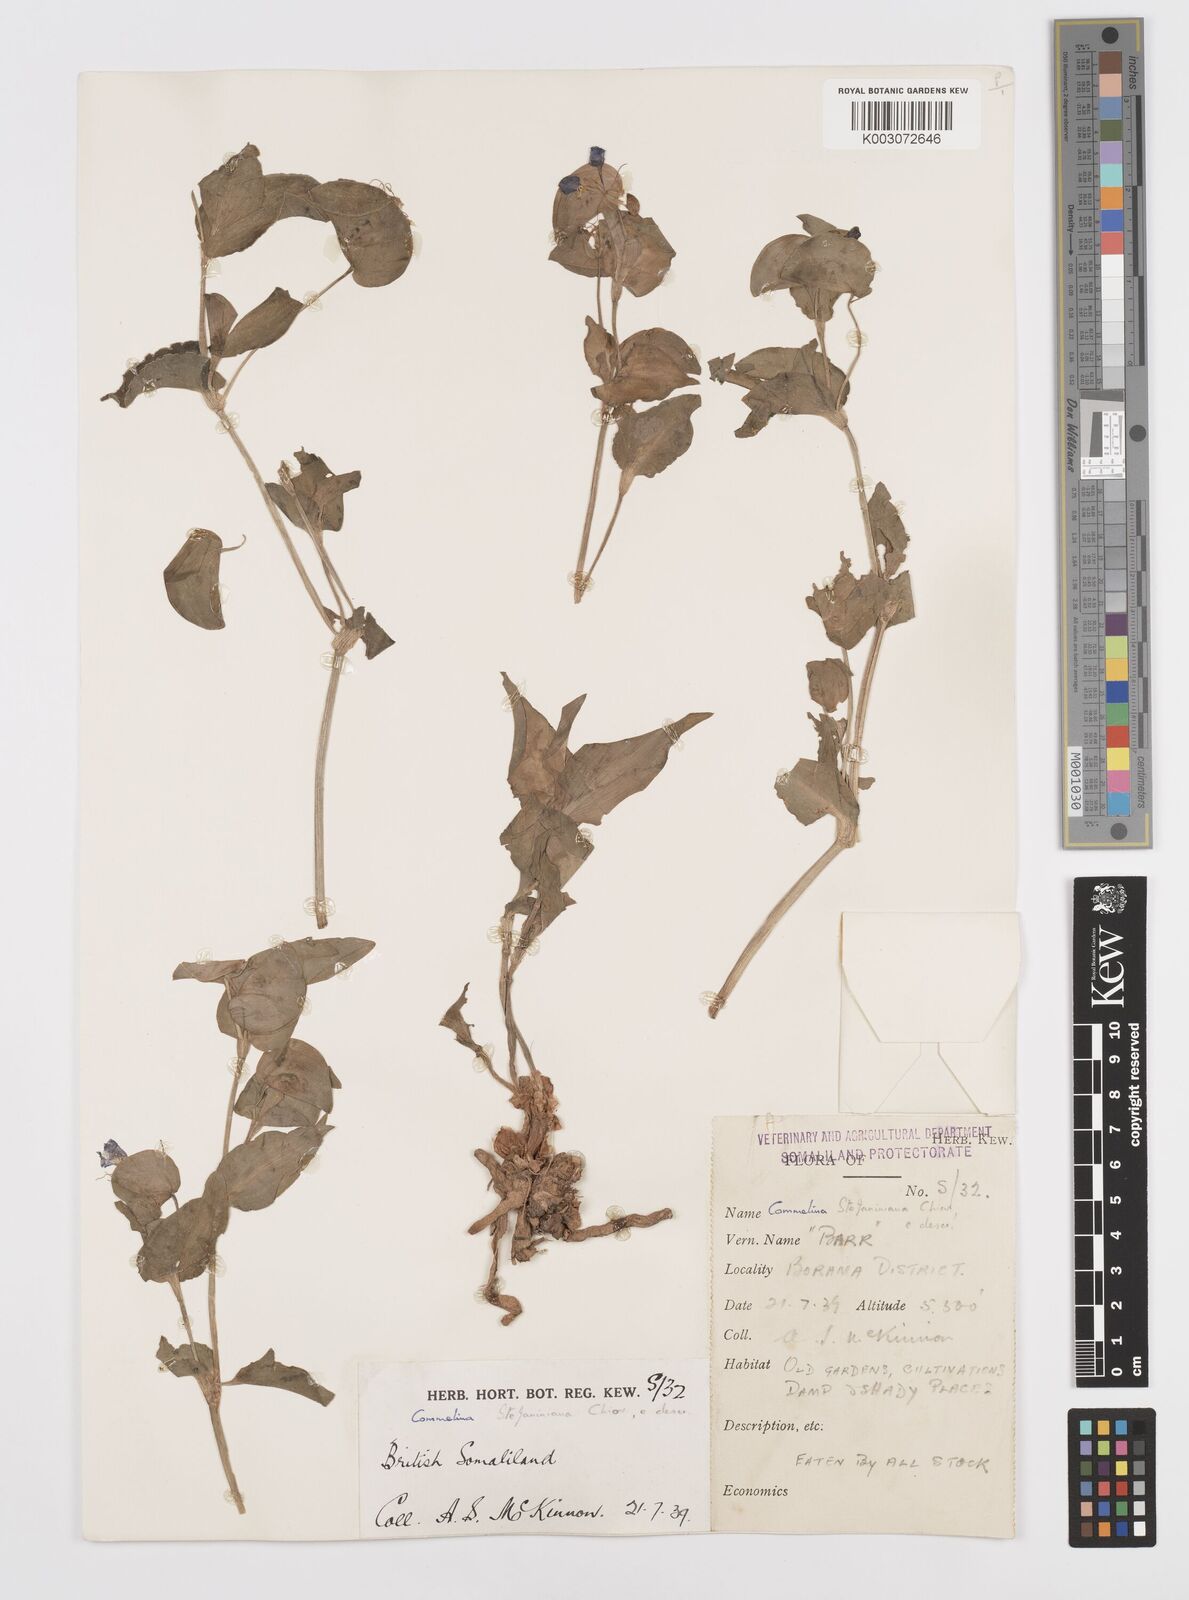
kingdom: Plantae
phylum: Tracheophyta
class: Liliopsida
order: Commelinales
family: Commelinaceae
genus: Commelina
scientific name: Commelina stefaniniana
